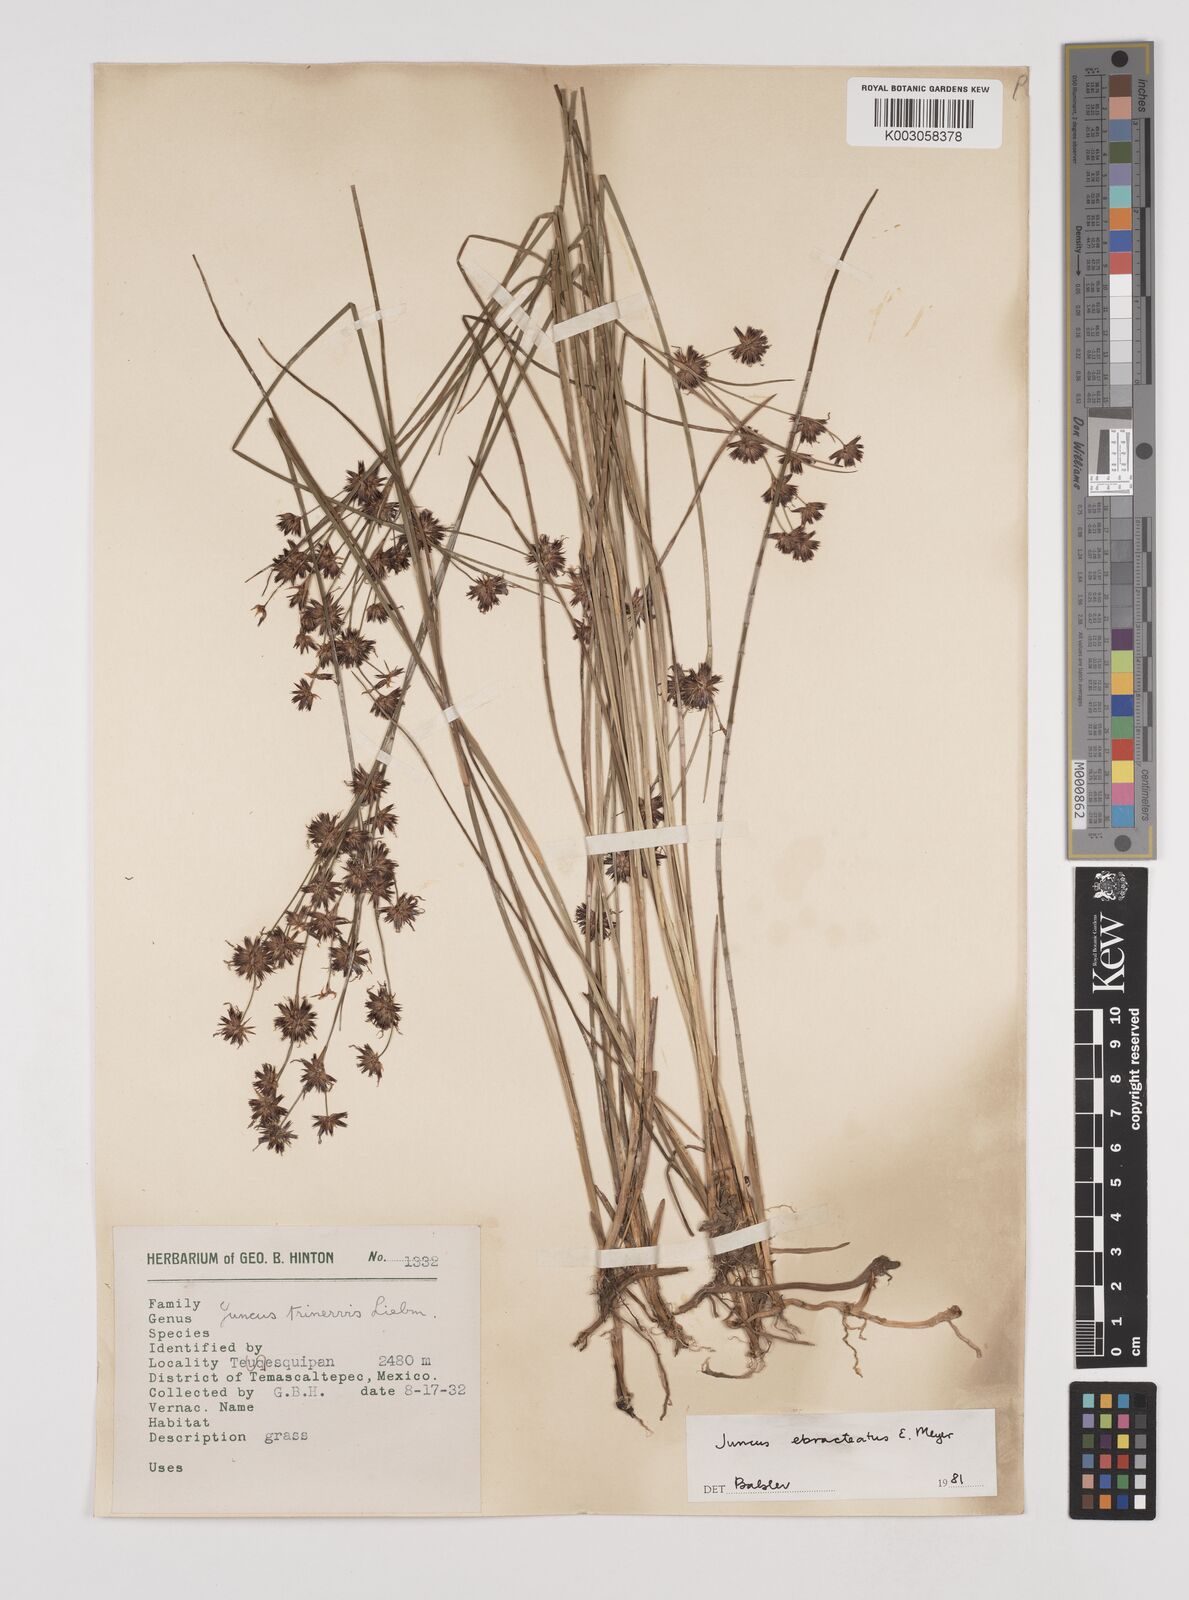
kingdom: Plantae
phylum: Tracheophyta
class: Liliopsida
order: Poales
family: Juncaceae
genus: Juncus
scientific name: Juncus ebracteatus
